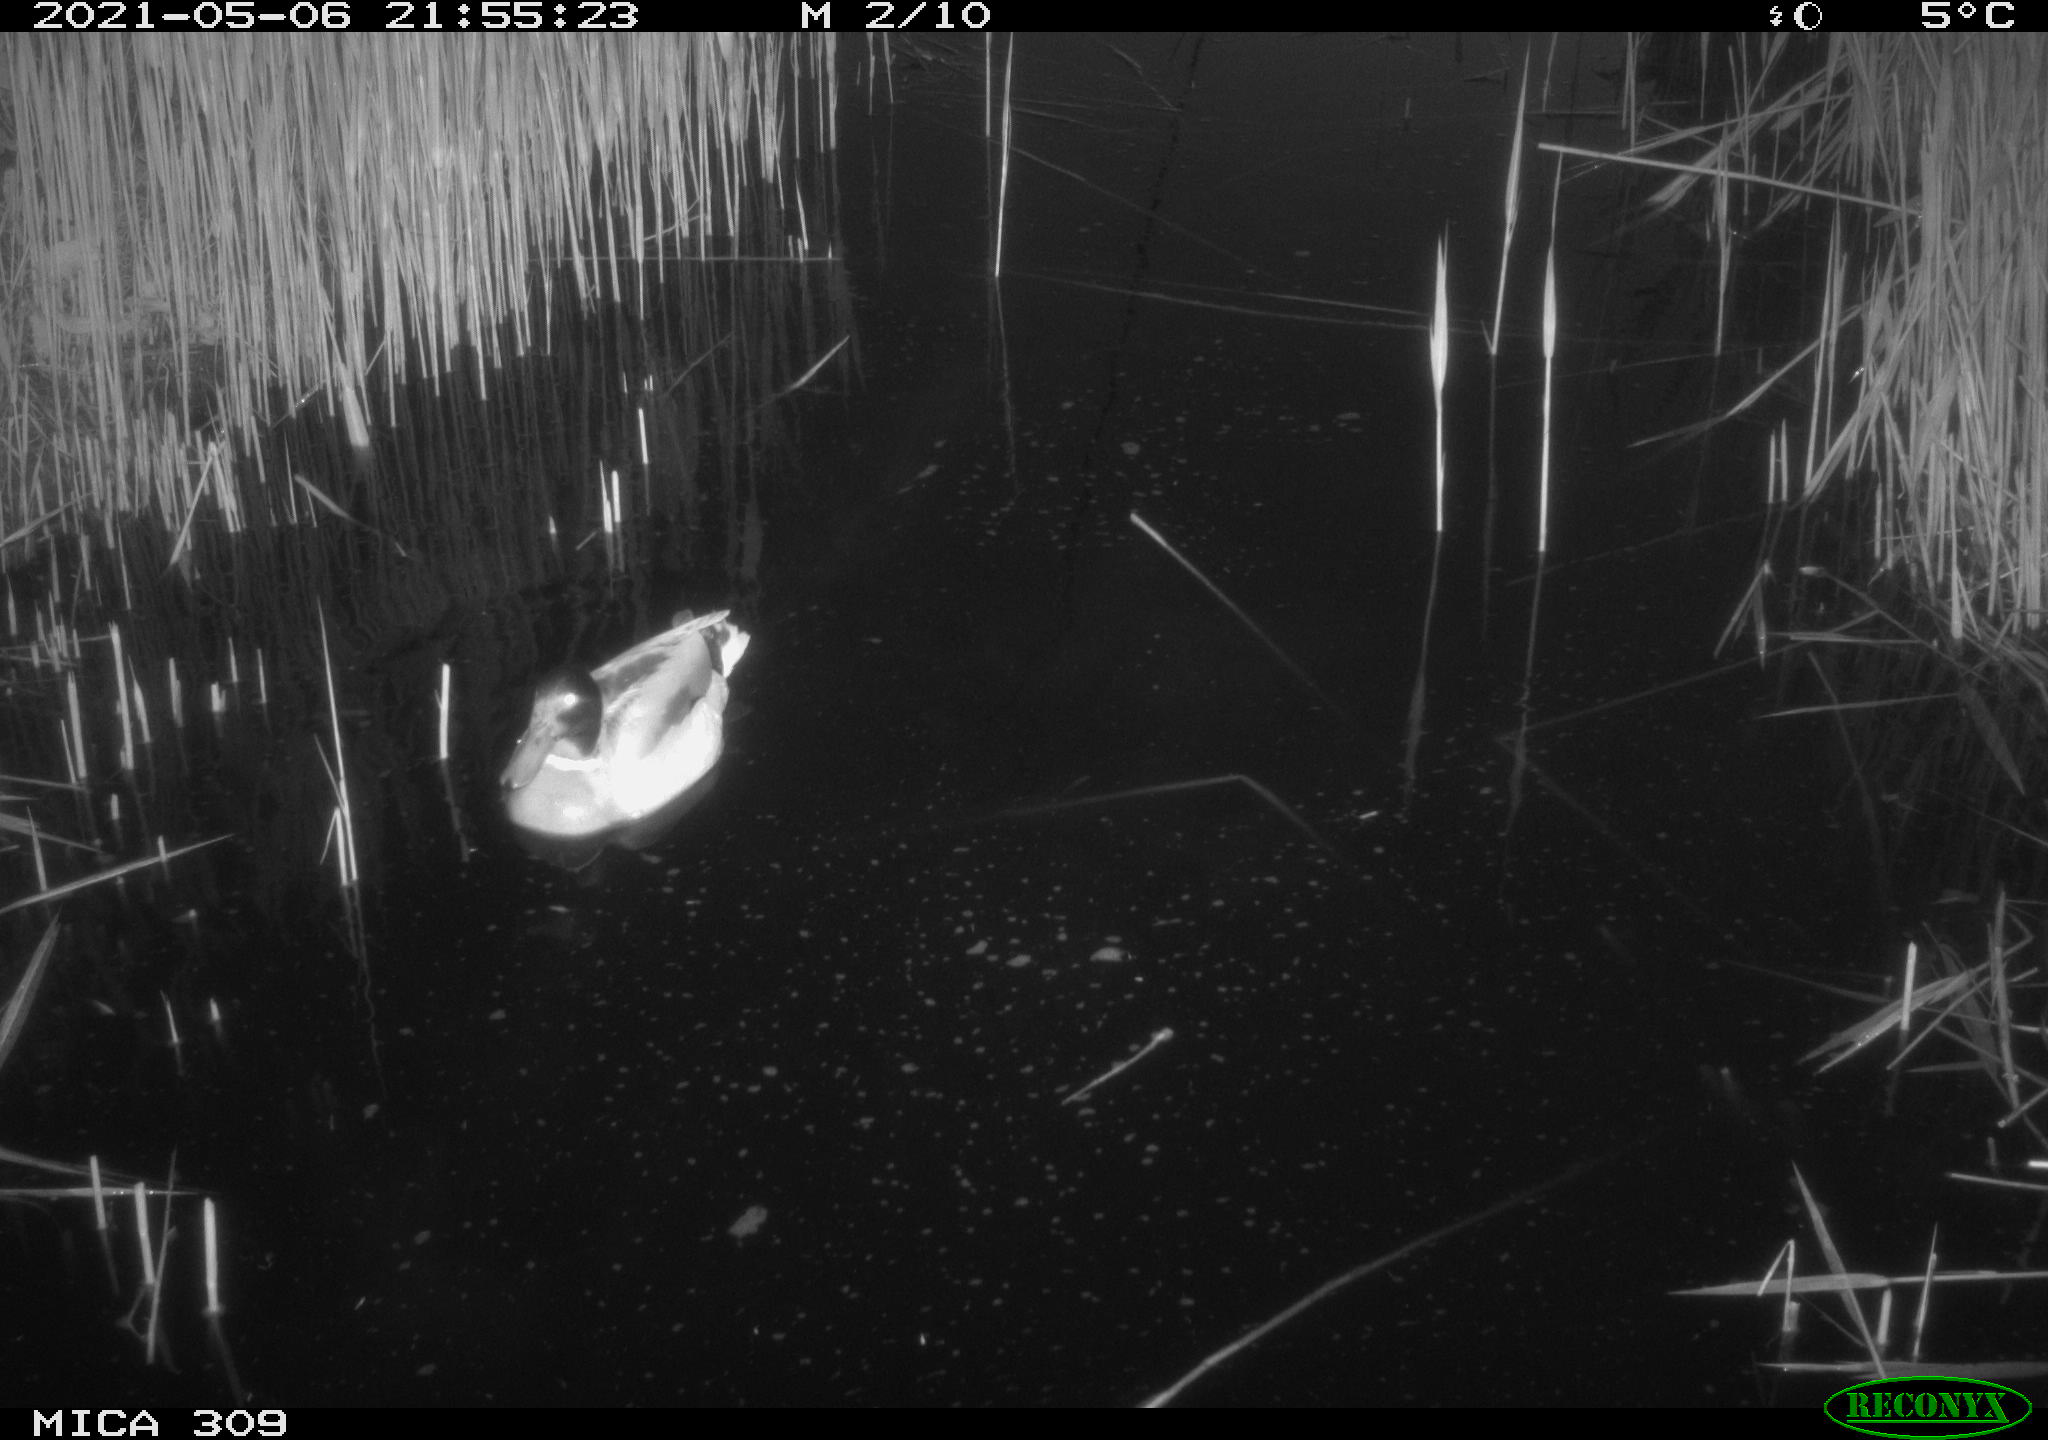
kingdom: Animalia
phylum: Chordata
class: Aves
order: Anseriformes
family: Anatidae
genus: Anas
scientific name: Anas platyrhynchos
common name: Mallard
